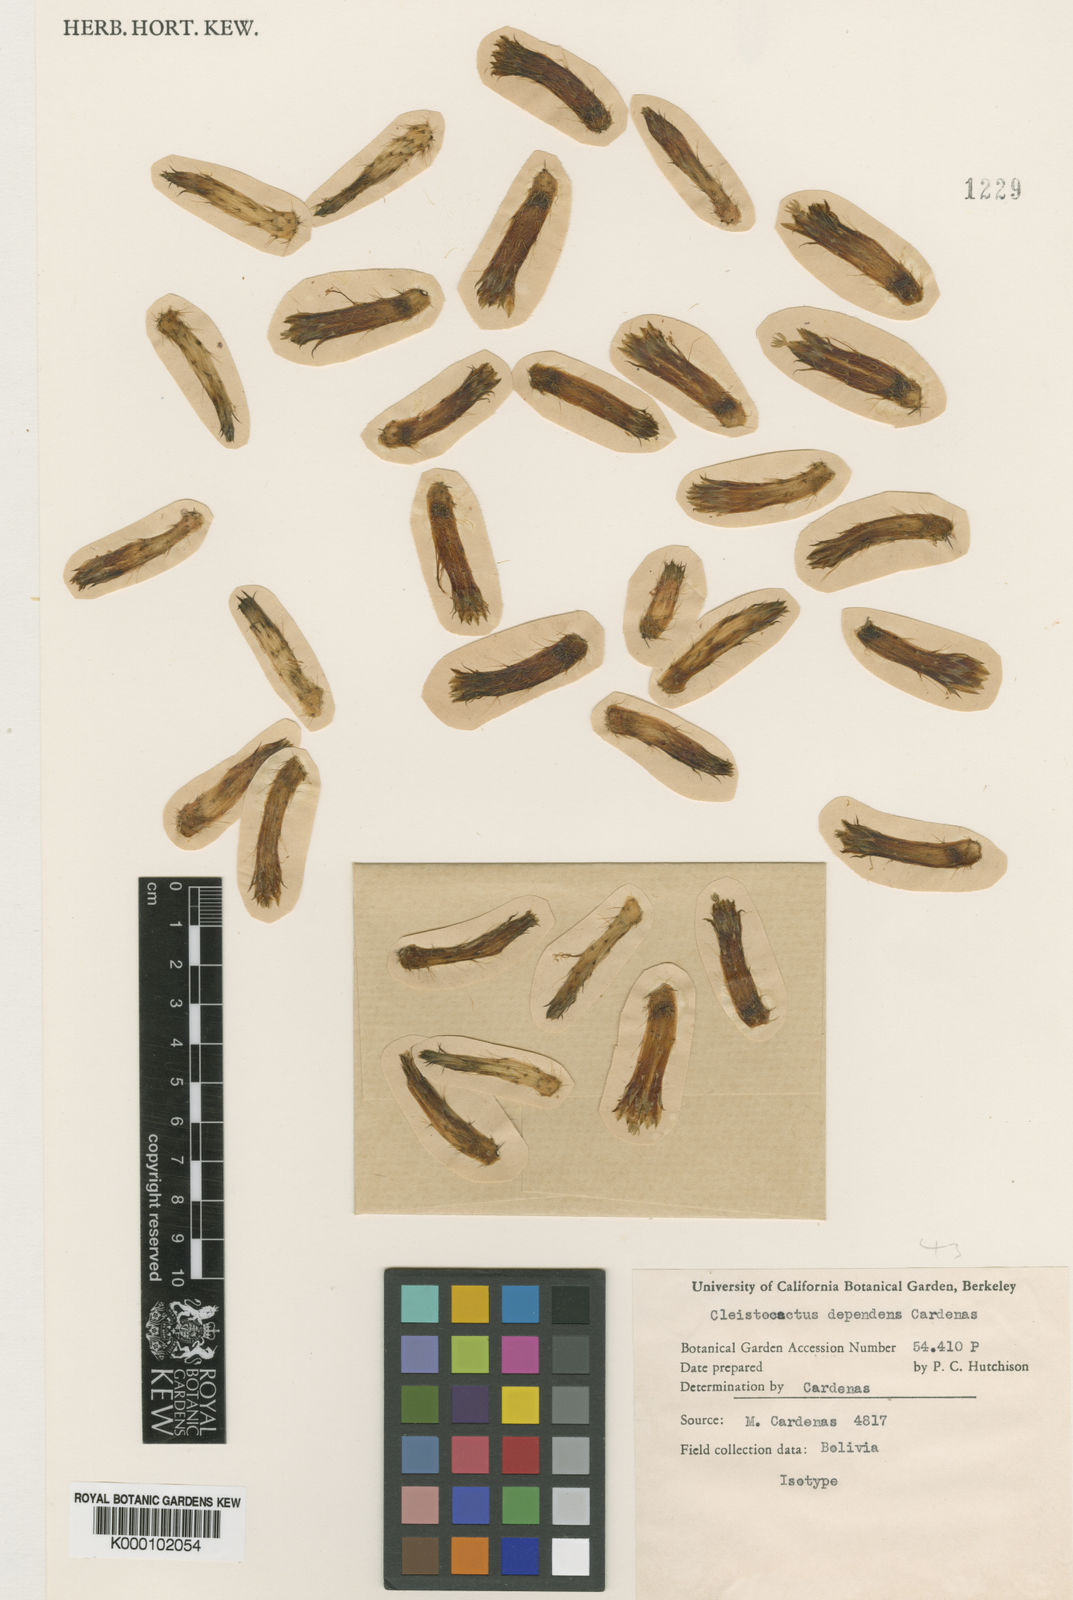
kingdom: Plantae
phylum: Tracheophyta
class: Magnoliopsida
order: Caryophyllales
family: Cactaceae
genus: Cleistocactus
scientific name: Cleistocactus
